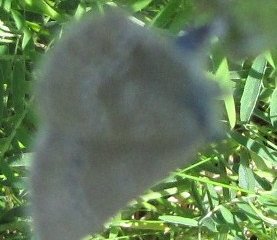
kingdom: Animalia
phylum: Arthropoda
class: Insecta
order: Lepidoptera
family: Lycaenidae
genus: Glaucopsyche
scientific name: Glaucopsyche lygdamus
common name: Silvery Blue
